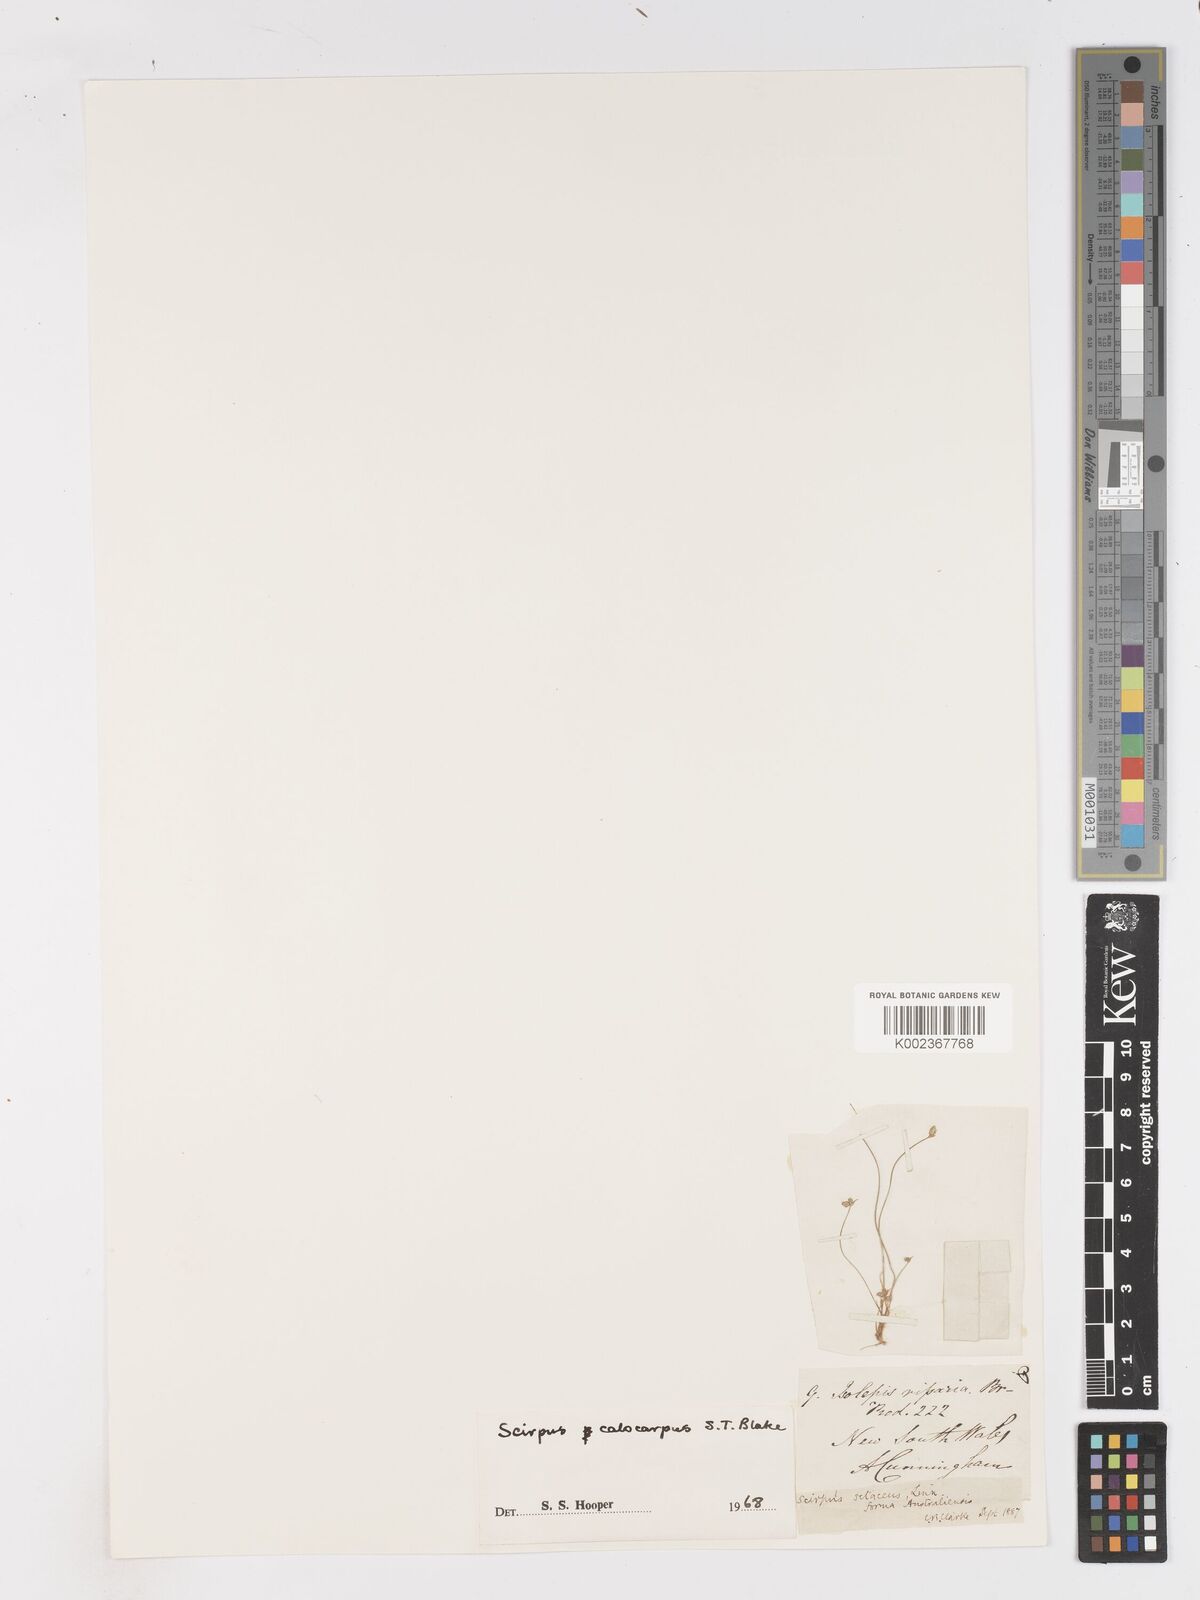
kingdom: Plantae
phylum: Tracheophyta
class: Liliopsida
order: Poales
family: Cyperaceae
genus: Isolepis
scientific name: Isolepis multicaulis
